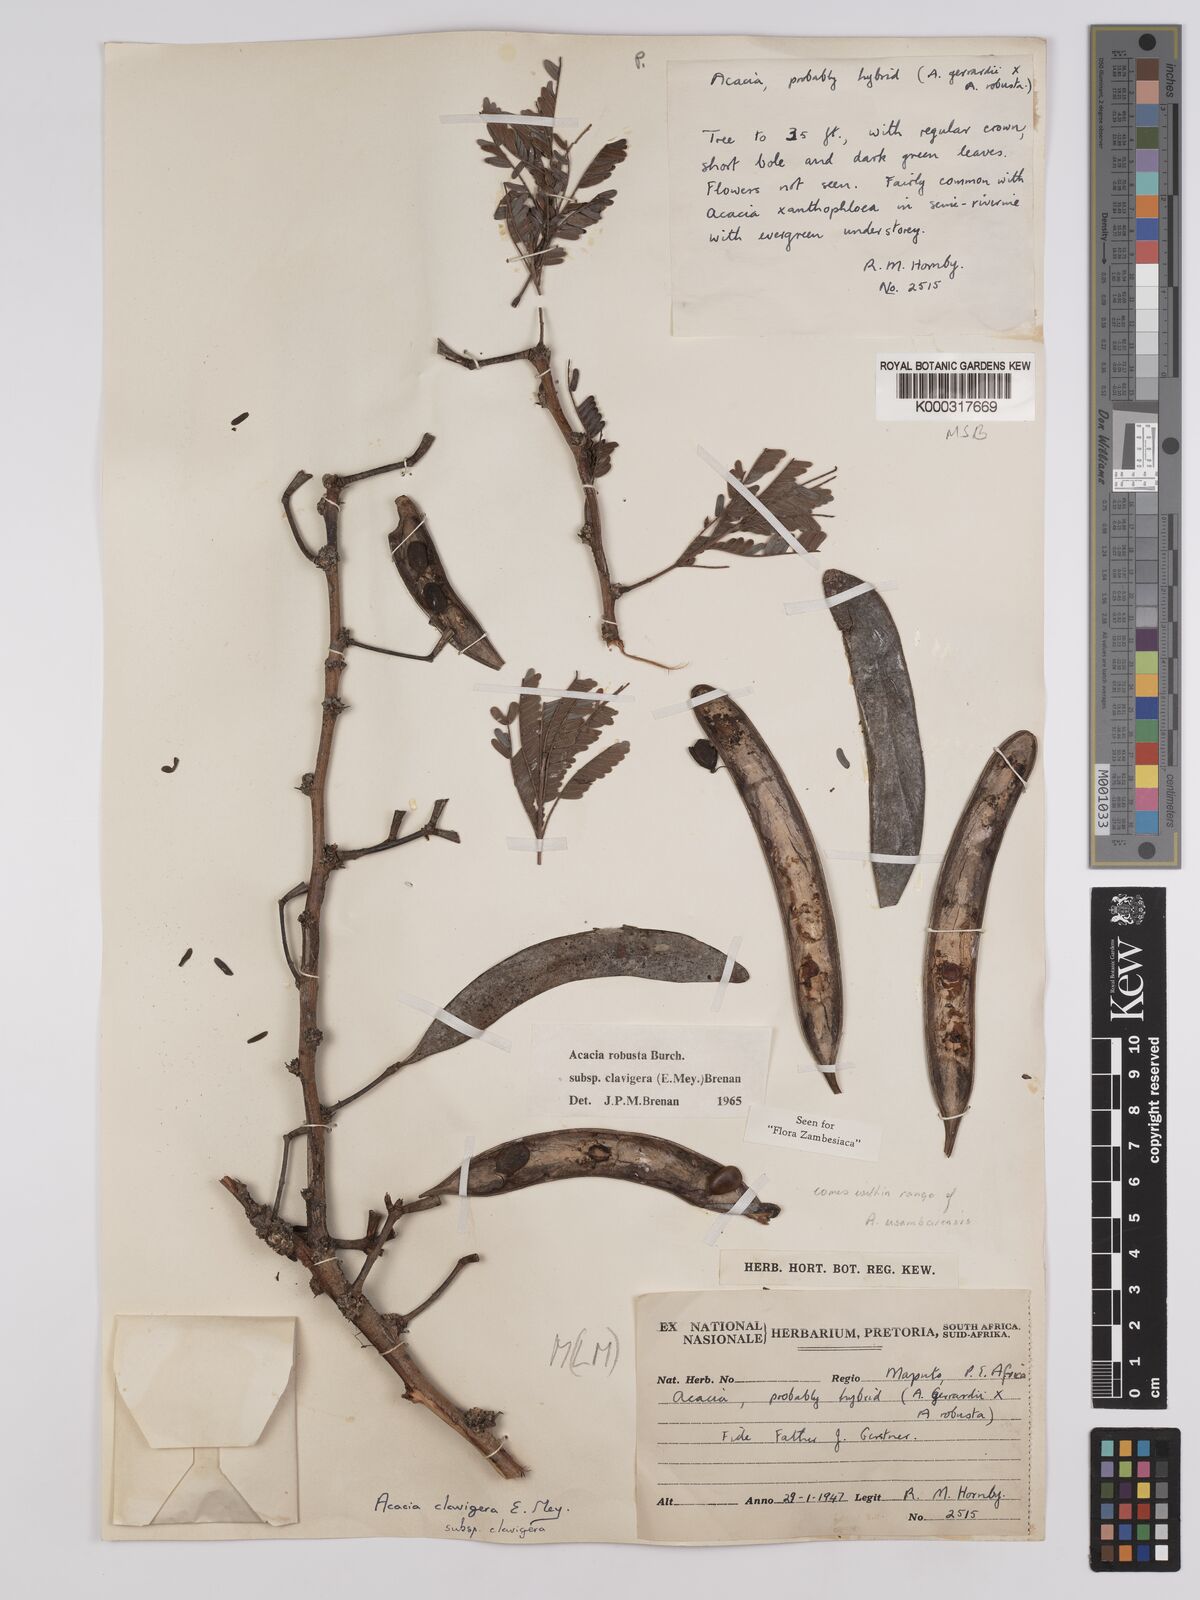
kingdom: Plantae
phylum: Tracheophyta
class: Magnoliopsida
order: Fabales
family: Fabaceae
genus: Vachellia
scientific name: Vachellia robusta
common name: Ankle thorn
